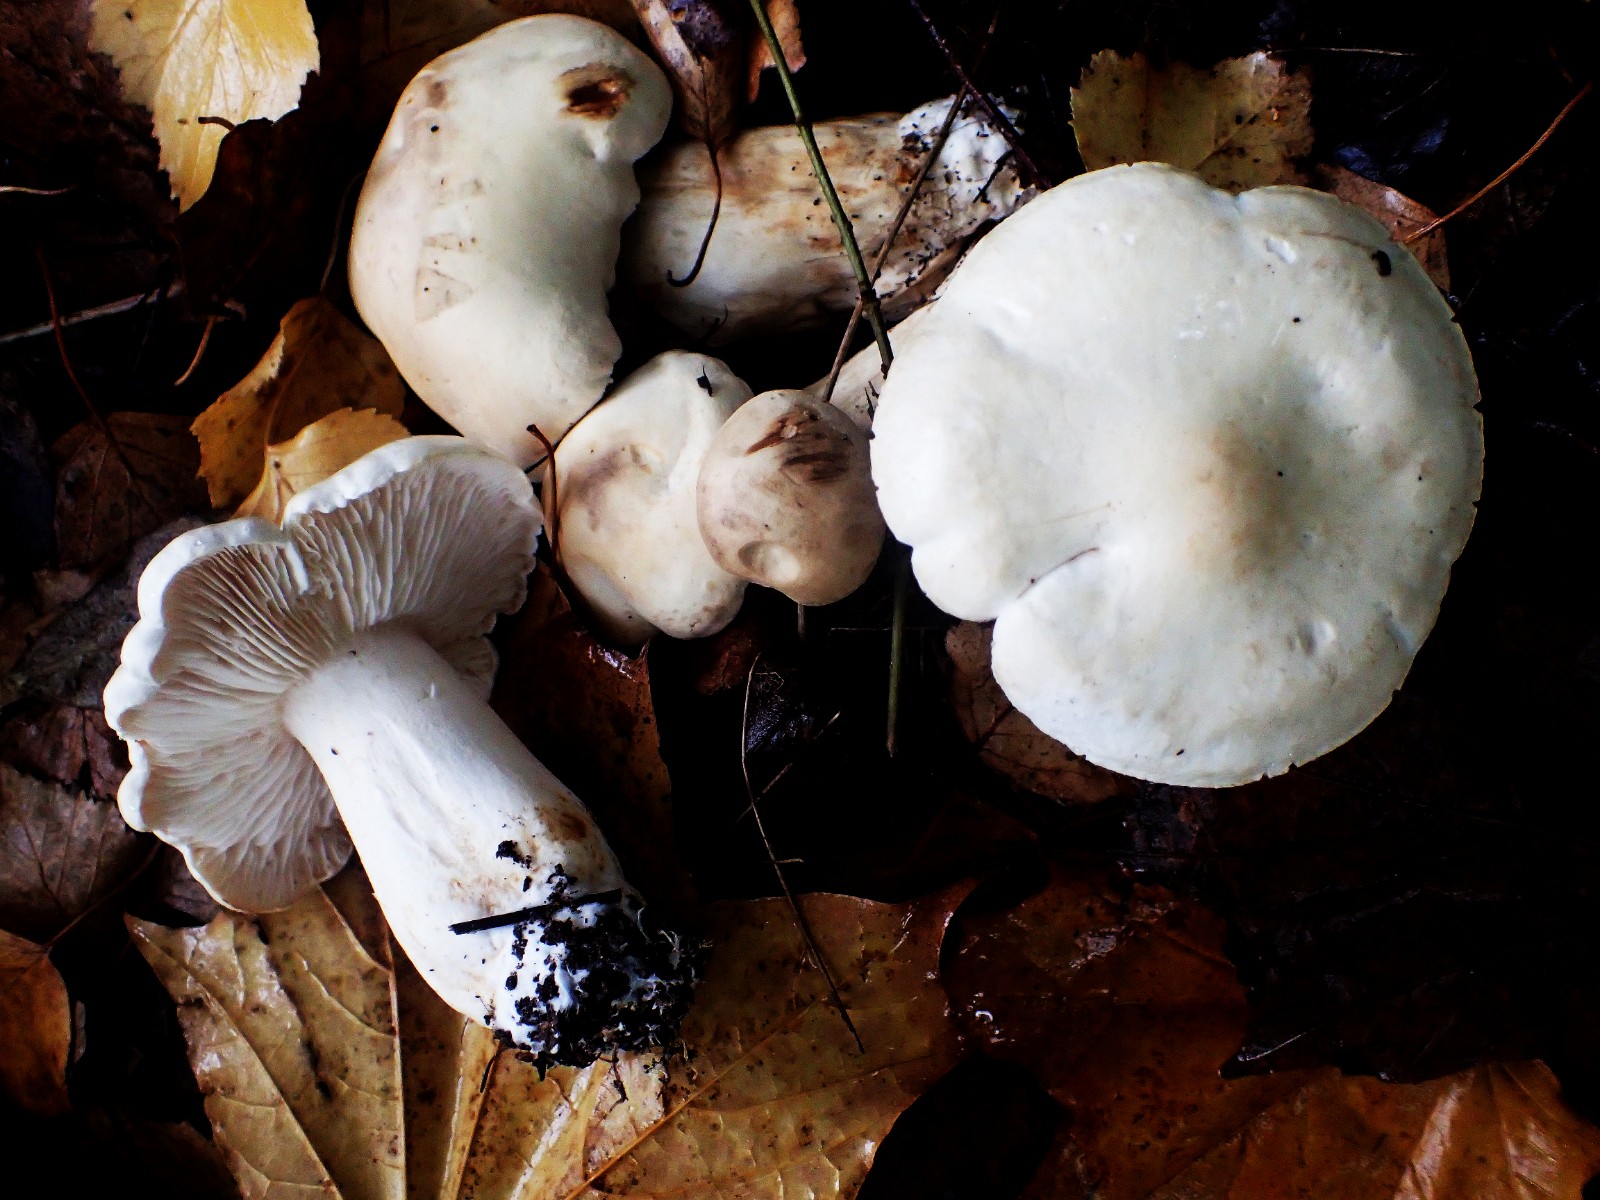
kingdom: Fungi
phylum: Basidiomycota
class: Agaricomycetes
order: Agaricales
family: Tricholomataceae
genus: Tricholoma
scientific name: Tricholoma stiparophyllum
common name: hvid ridderhat
